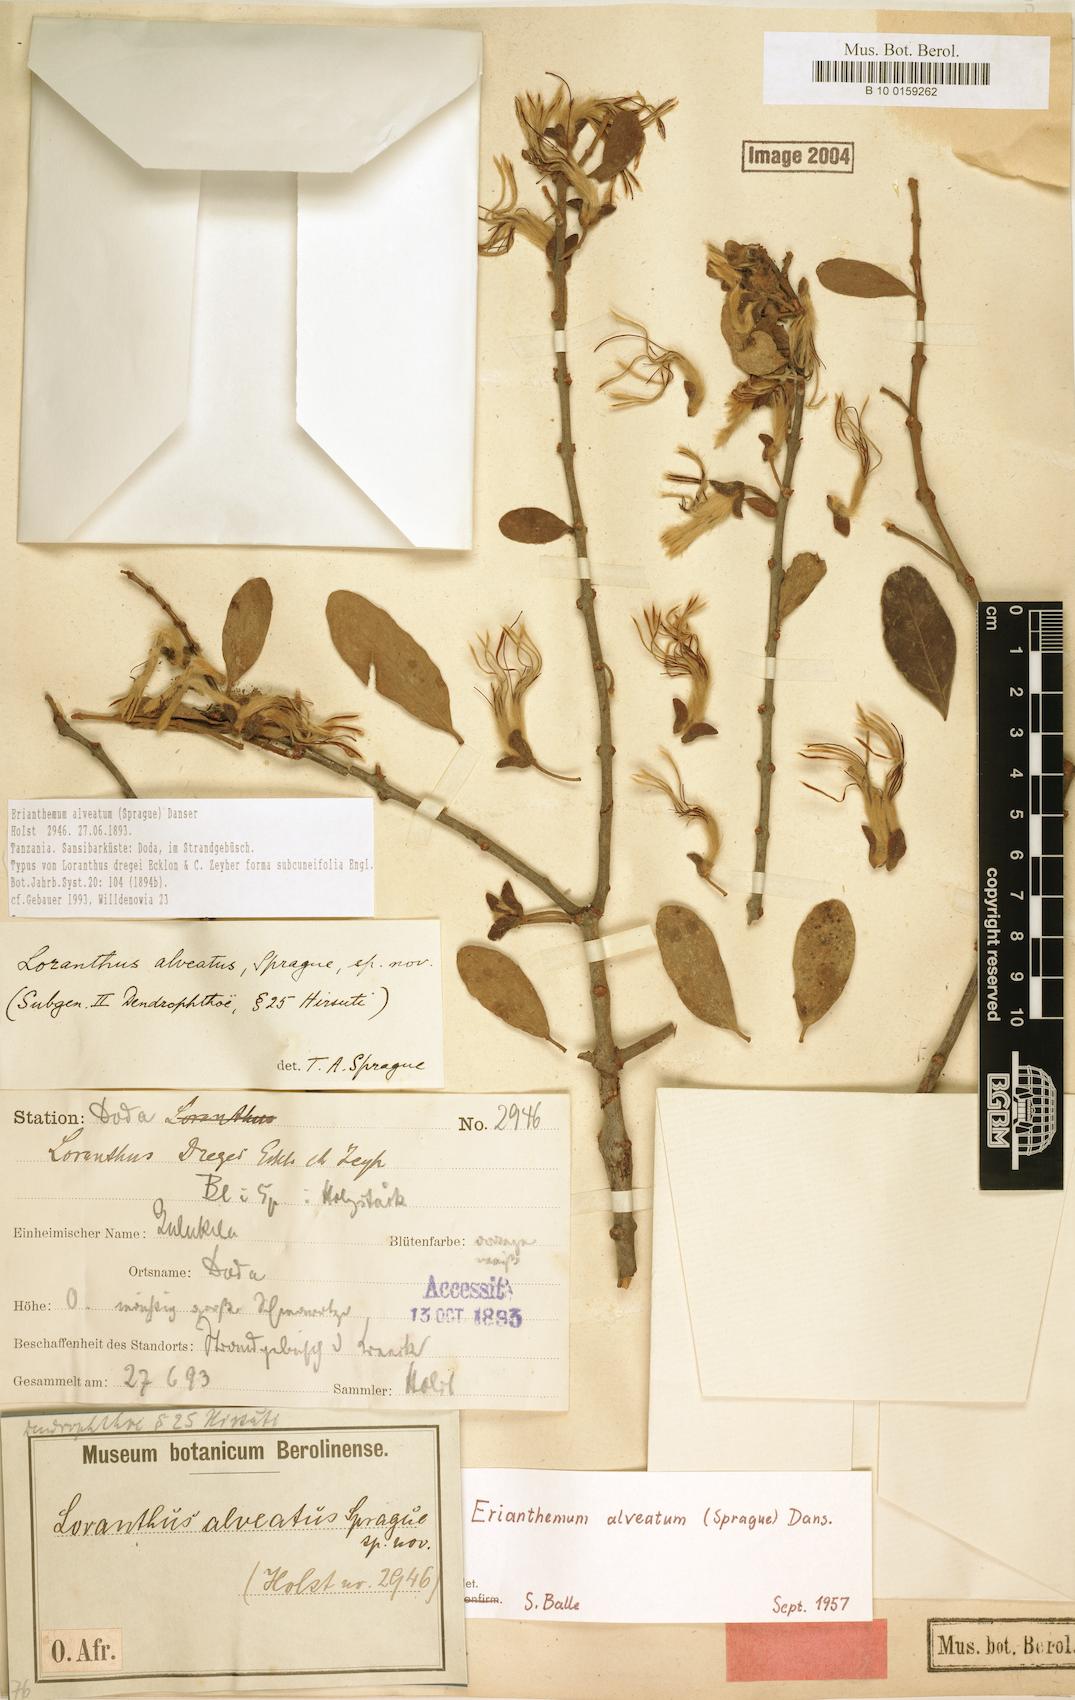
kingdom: Plantae
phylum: Tracheophyta
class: Magnoliopsida
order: Santalales
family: Loranthaceae
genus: Erianthemum
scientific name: Erianthemum alveatum
